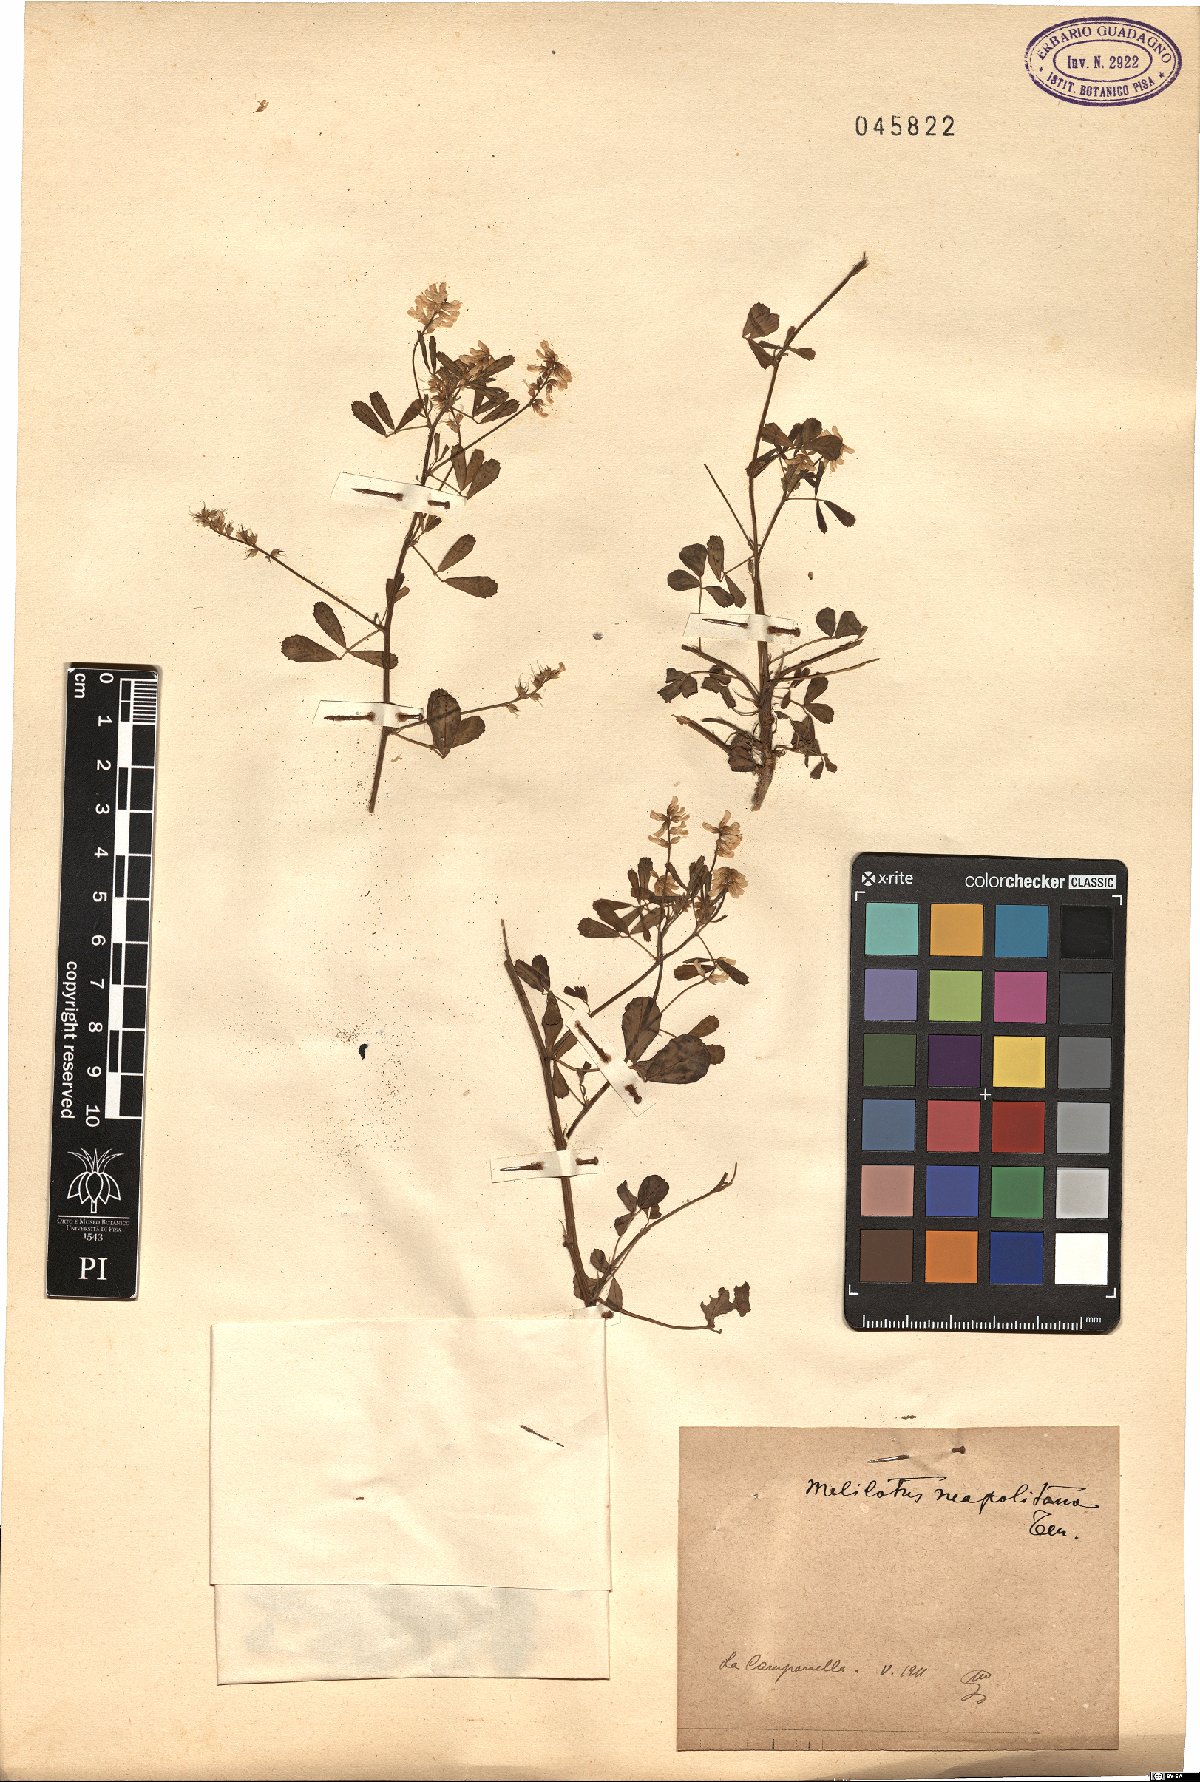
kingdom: Plantae
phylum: Tracheophyta
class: Magnoliopsida
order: Fabales
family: Fabaceae
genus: Melilotus
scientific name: Melilotus neapolitanus
